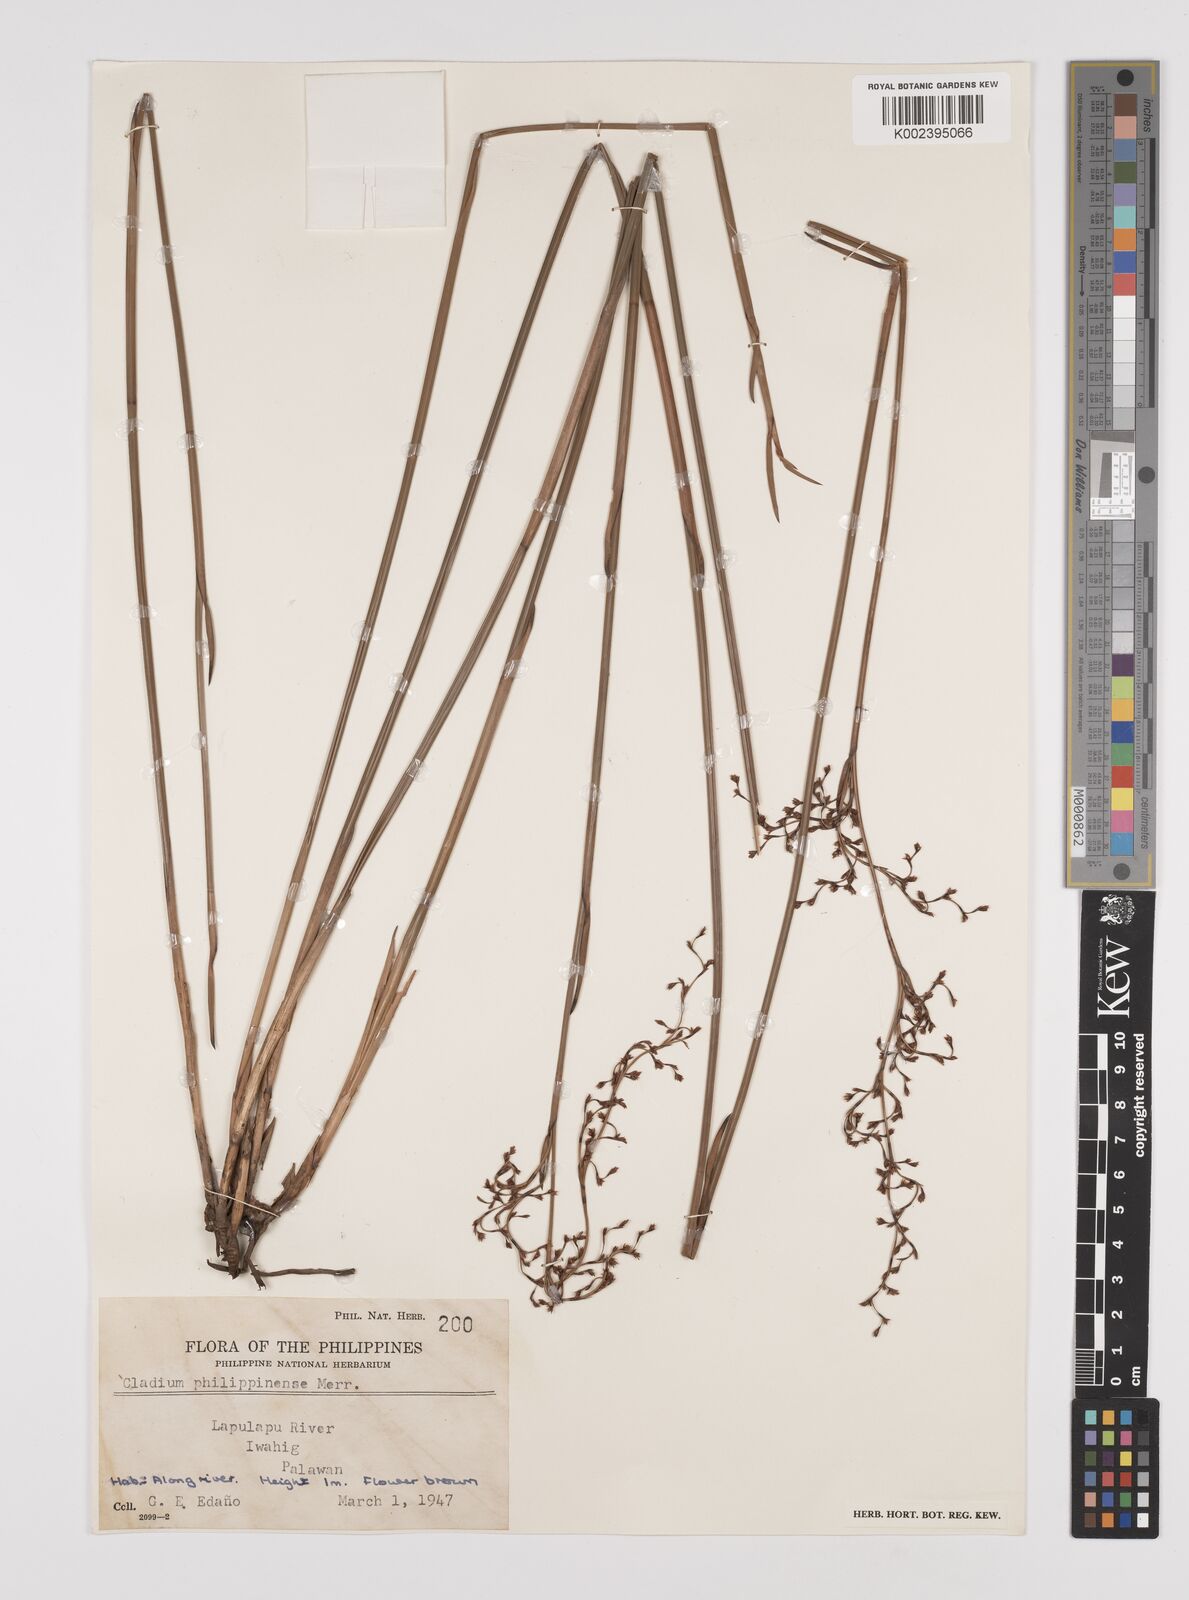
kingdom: Plantae
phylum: Tracheophyta
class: Liliopsida
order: Poales
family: Cyperaceae
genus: Machaerina
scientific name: Machaerina disticha
